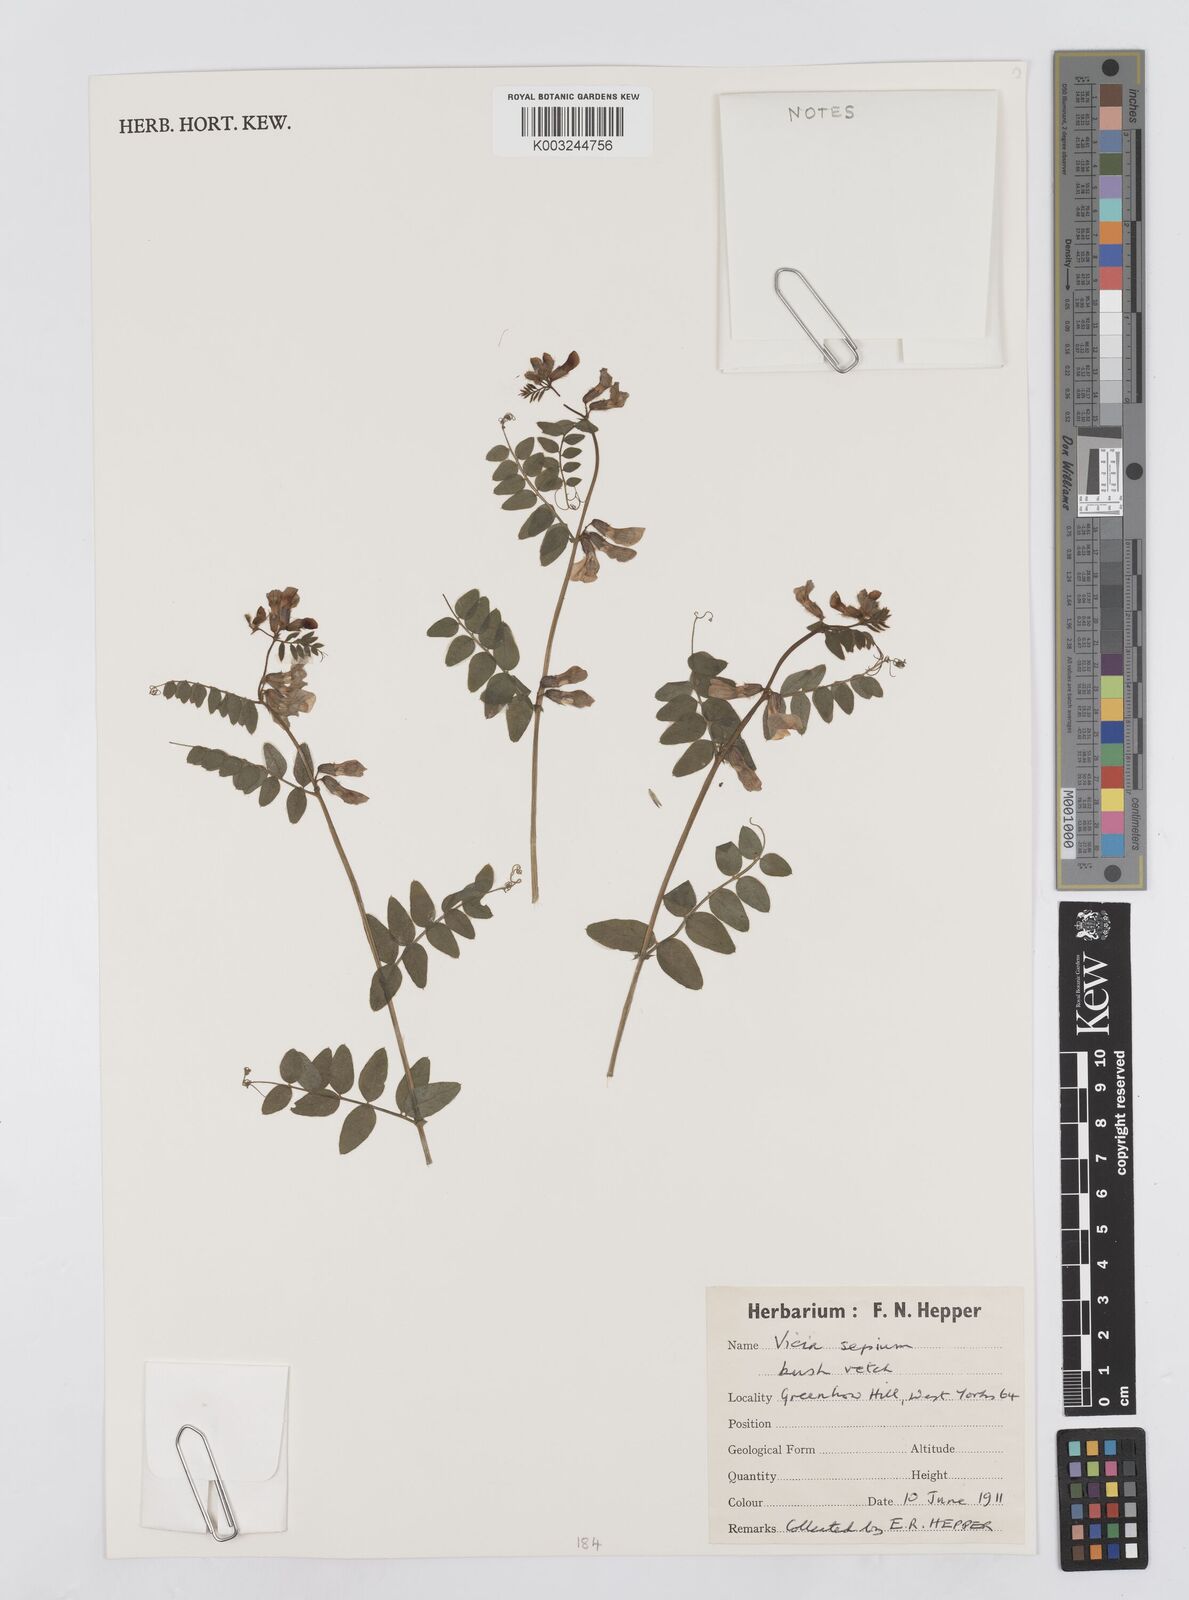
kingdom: Plantae
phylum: Tracheophyta
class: Magnoliopsida
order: Fabales
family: Fabaceae
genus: Vicia
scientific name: Vicia
